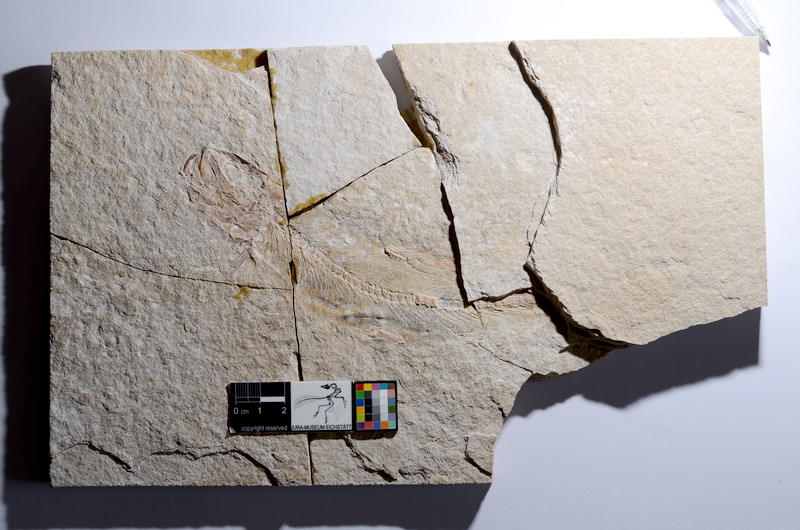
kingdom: Animalia
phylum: Chordata
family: Ascalaboidae
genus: Tharsis
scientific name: Tharsis dubius
